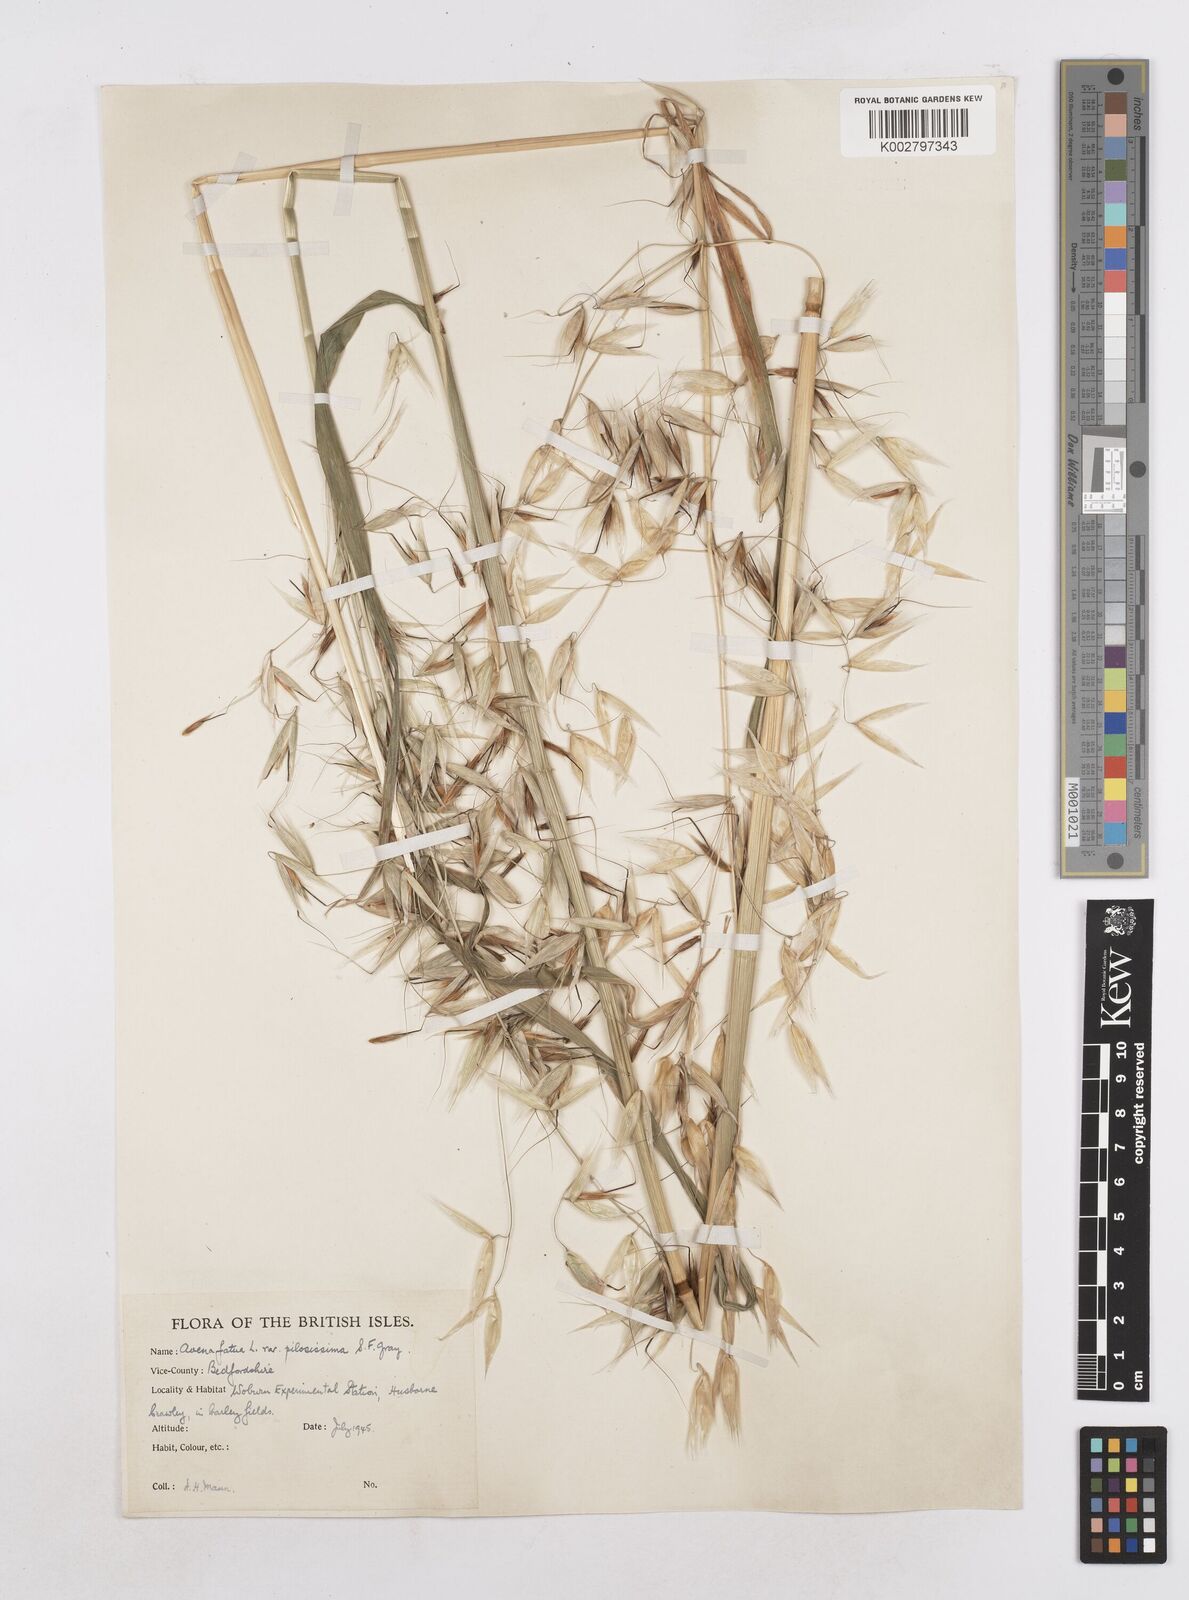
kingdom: Plantae
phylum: Tracheophyta
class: Liliopsida
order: Poales
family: Poaceae
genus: Avena
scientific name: Avena fatua
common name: Wild oat
